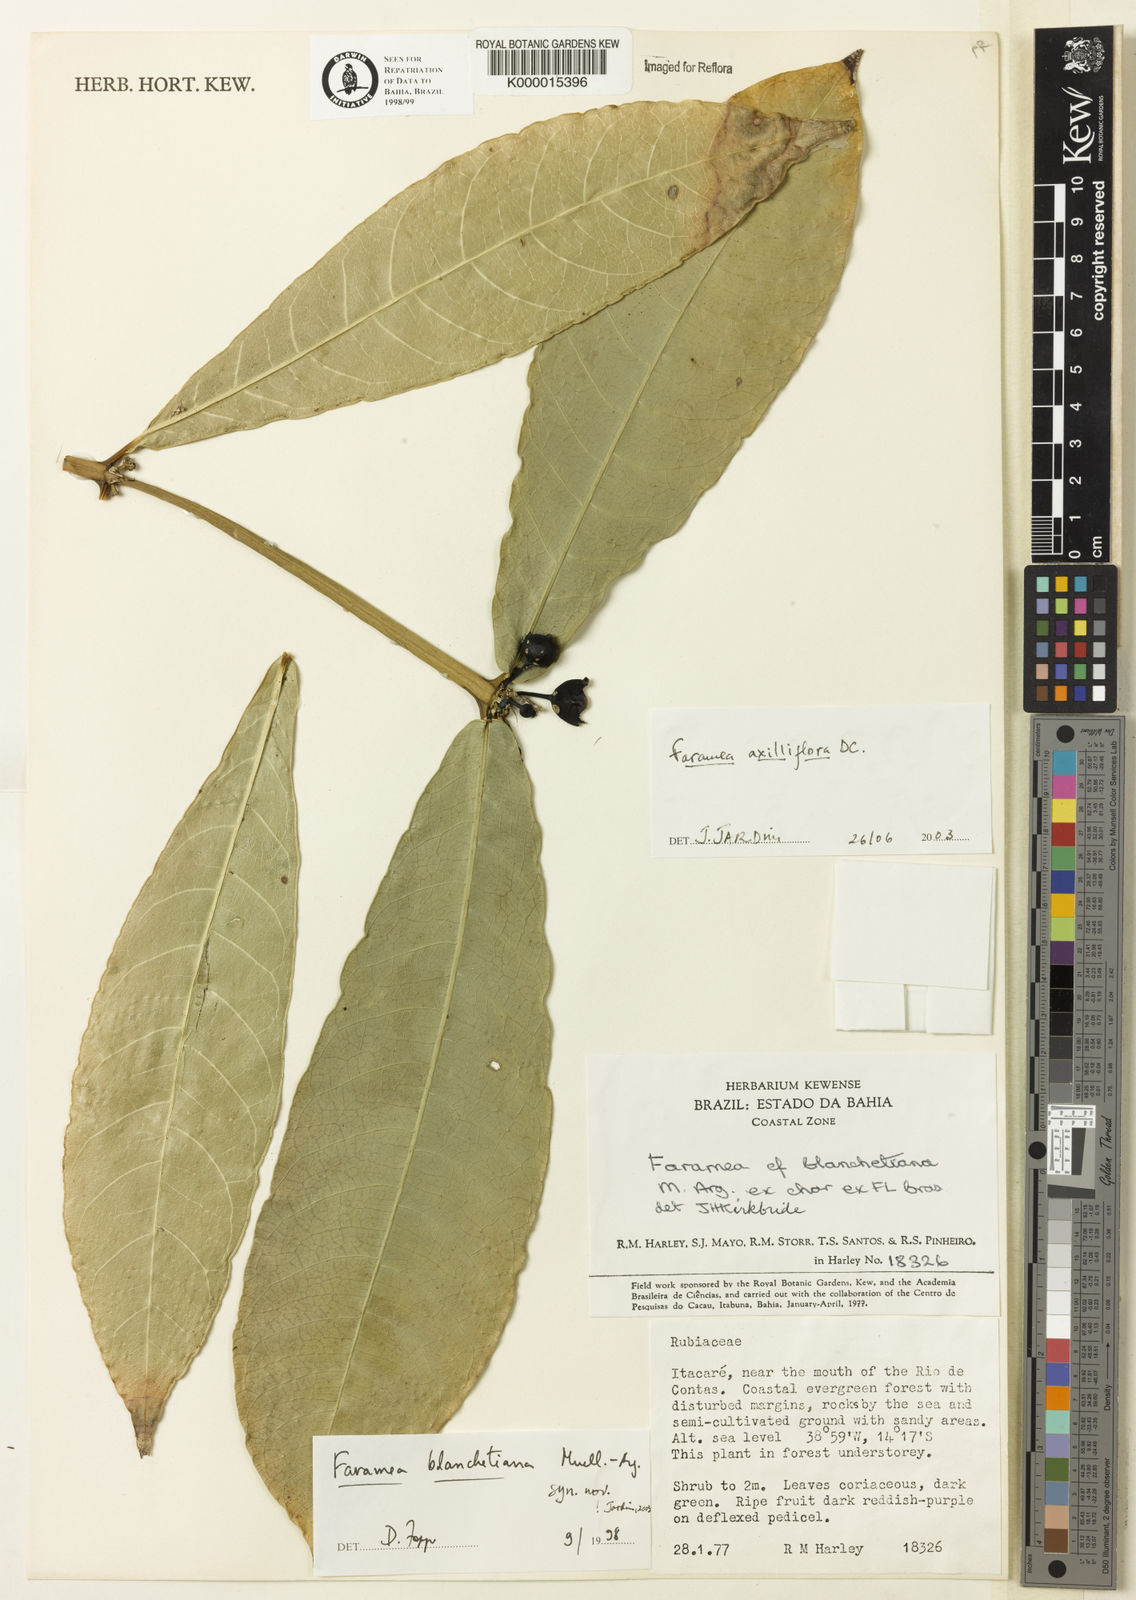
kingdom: Plantae
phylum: Tracheophyta
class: Magnoliopsida
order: Gentianales
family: Rubiaceae
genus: Faramea
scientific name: Faramea axilliflora
